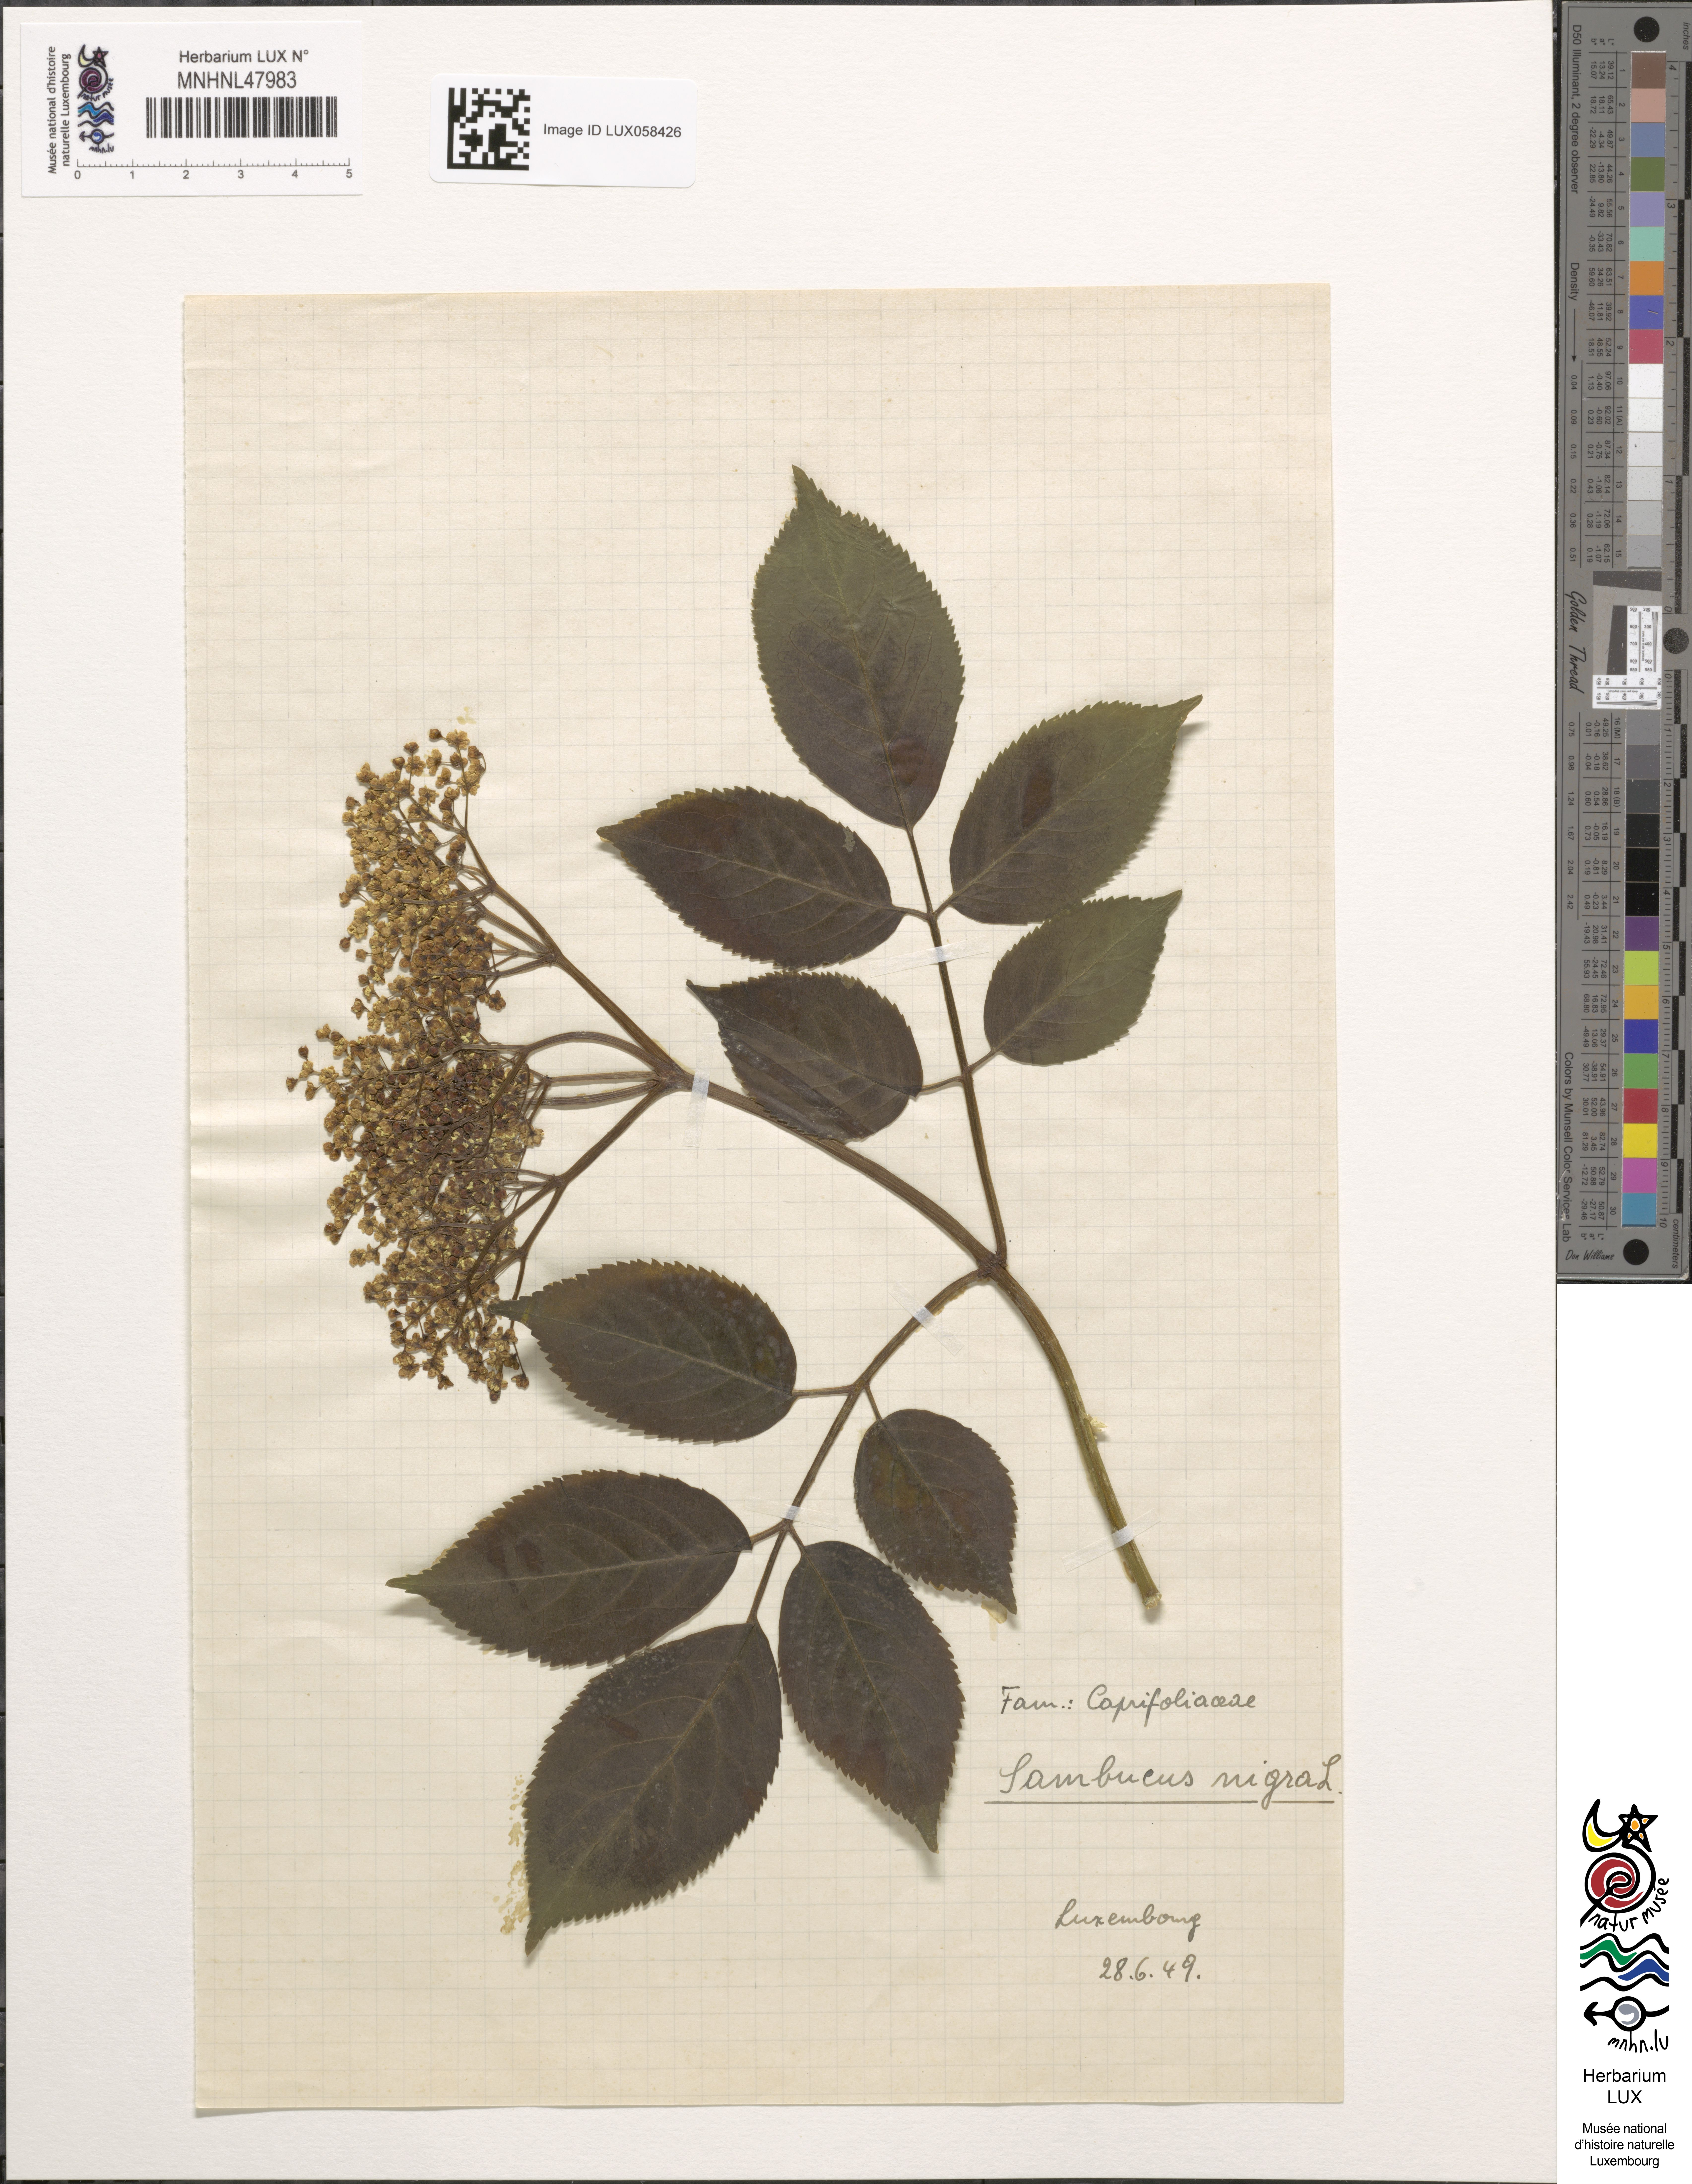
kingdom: Plantae
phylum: Tracheophyta
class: Magnoliopsida
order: Dipsacales
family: Viburnaceae
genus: Sambucus
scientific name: Sambucus nigra
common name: Elder
